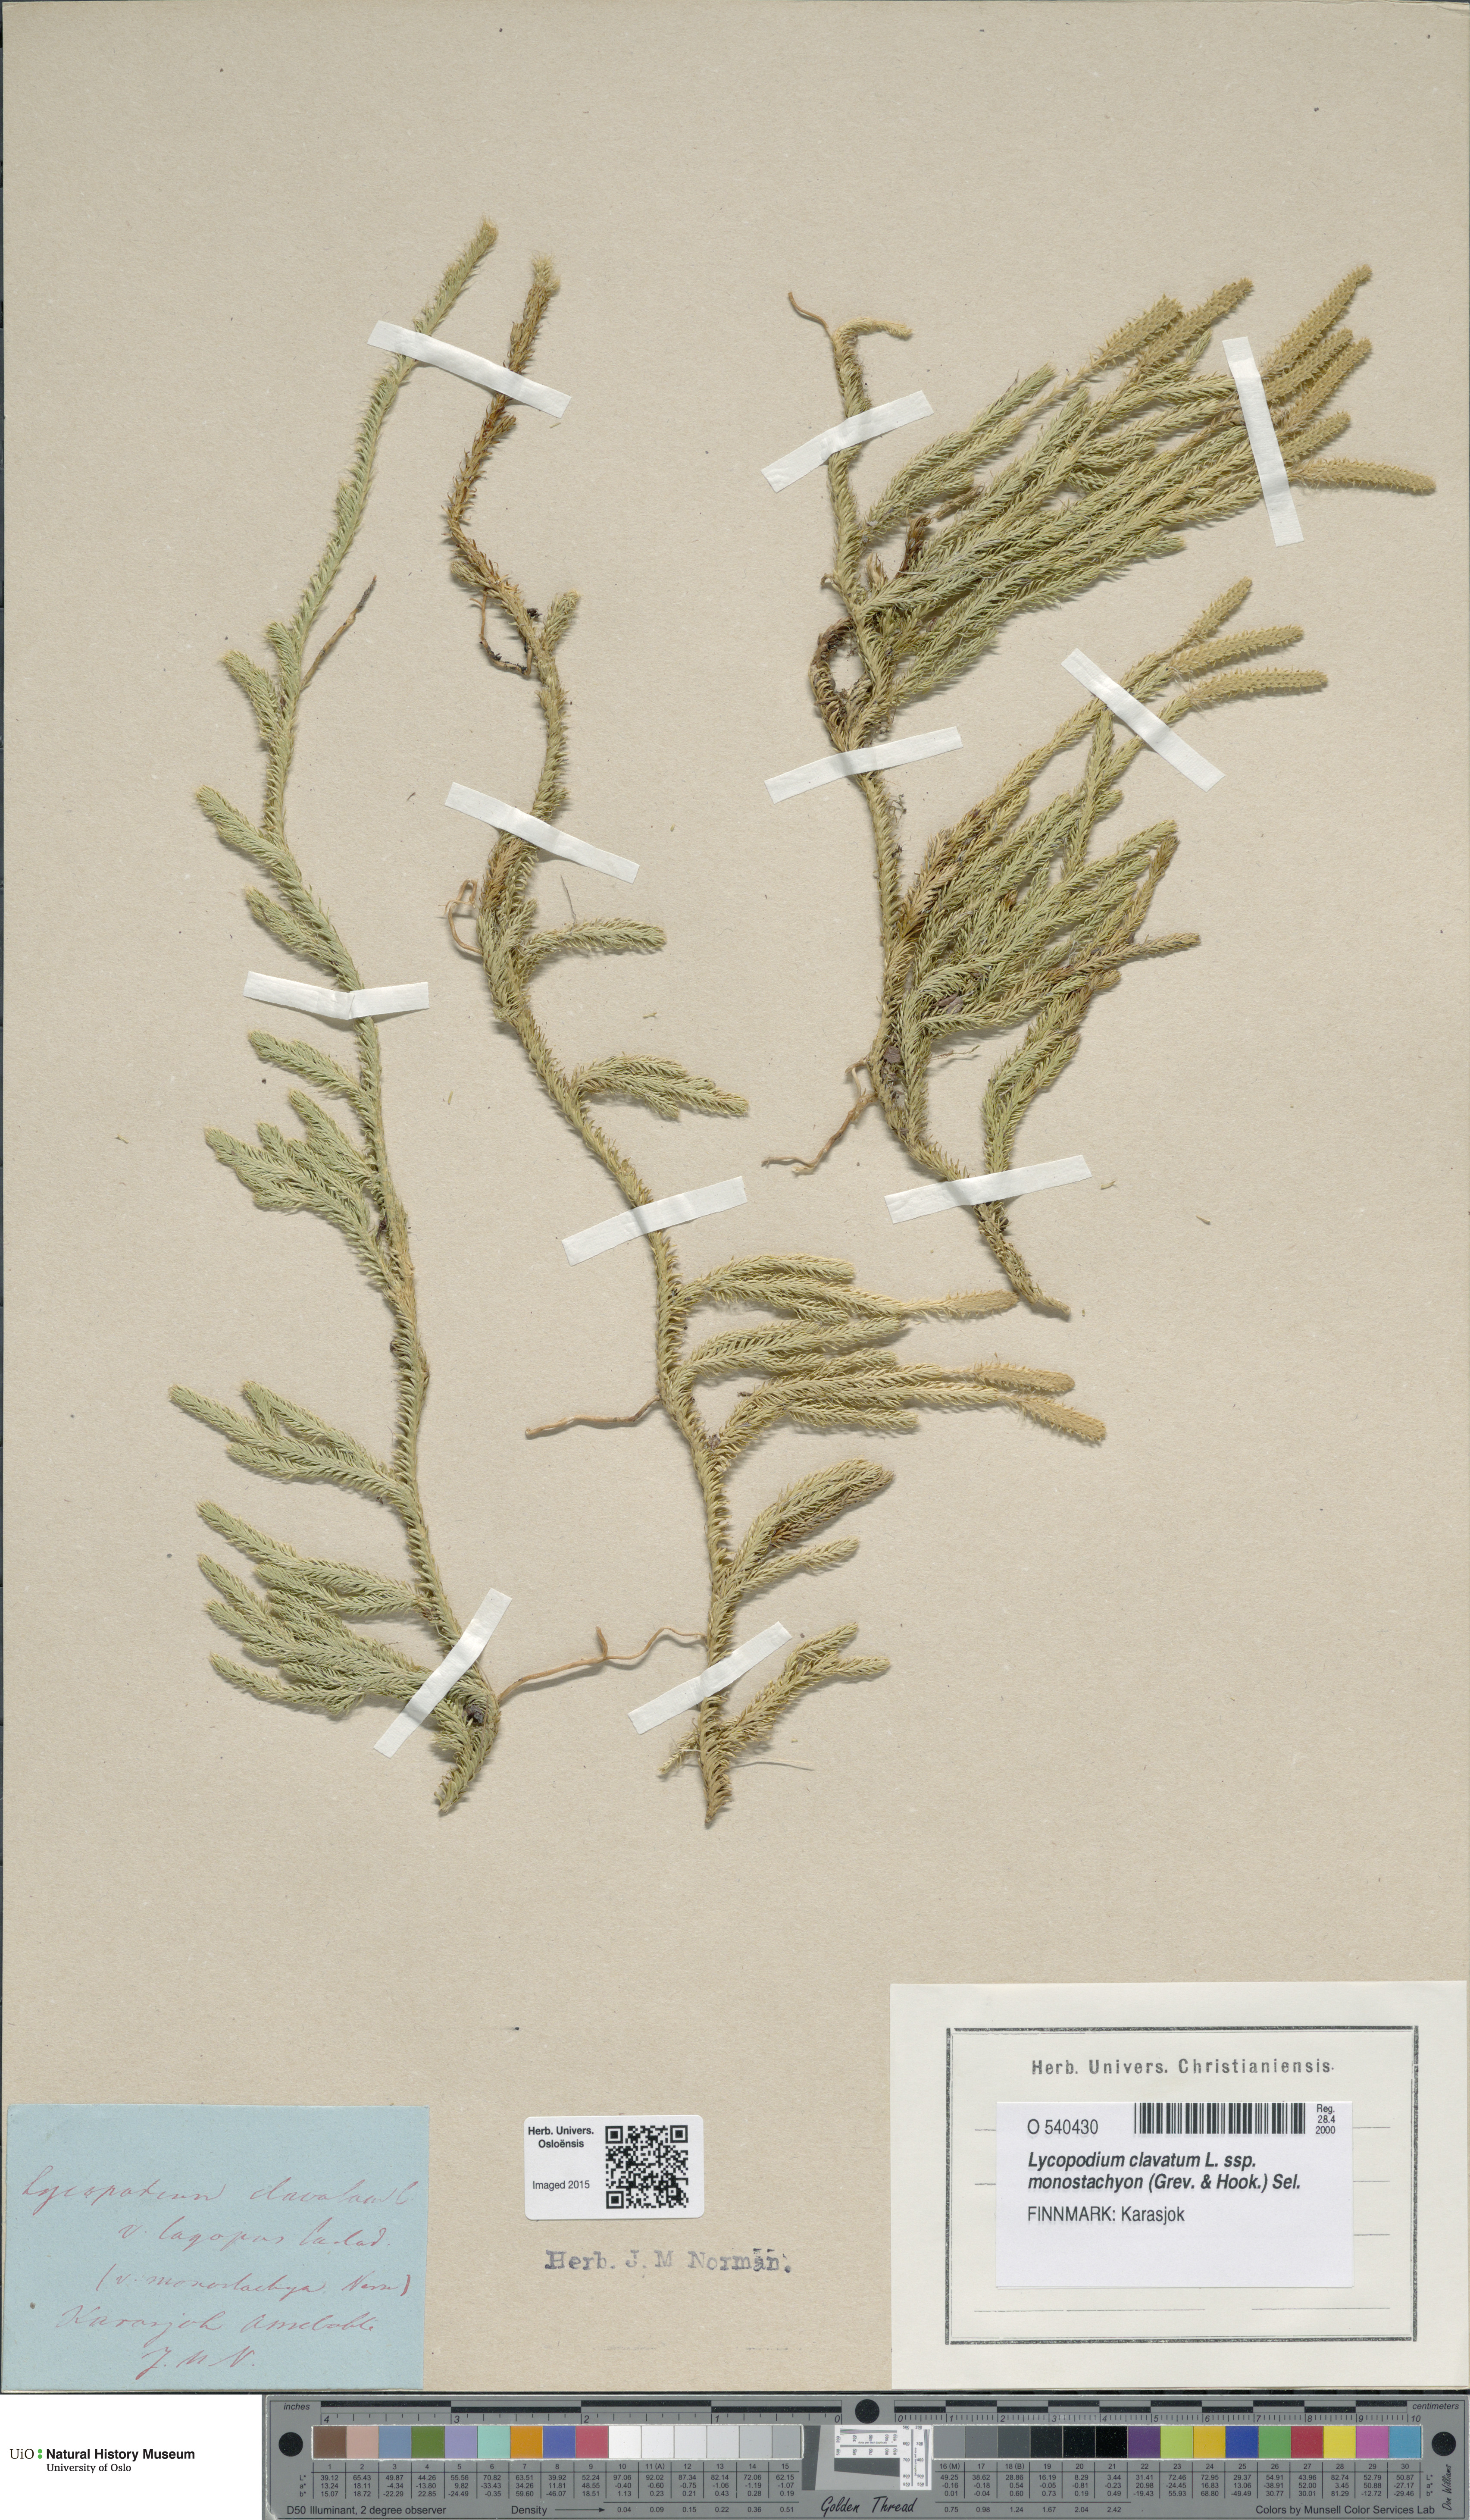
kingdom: Plantae
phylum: Tracheophyta
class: Lycopodiopsida
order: Lycopodiales
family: Lycopodiaceae
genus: Lycopodium
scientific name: Lycopodium lagopus
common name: One-cone clubmoss
